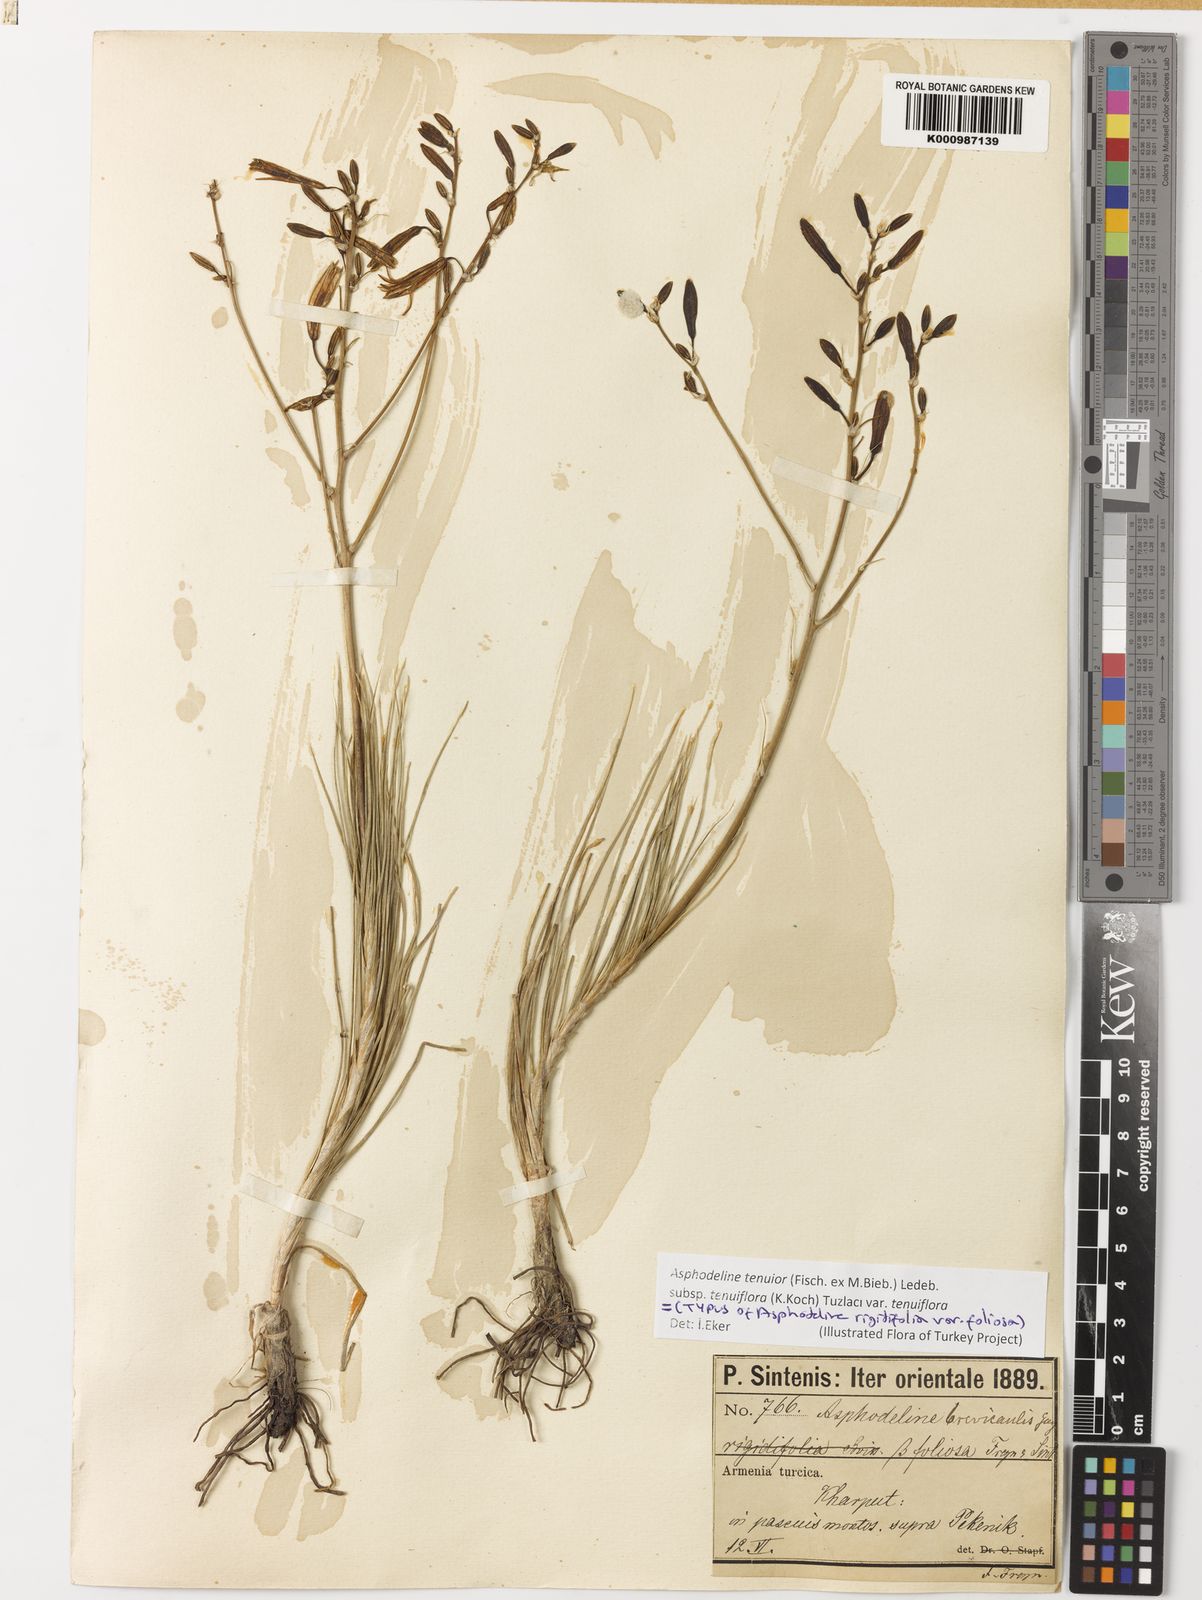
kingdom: Plantae
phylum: Tracheophyta
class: Liliopsida
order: Asparagales
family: Asphodelaceae
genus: Asphodeline
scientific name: Asphodeline tenuior
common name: Thin asphodeline
